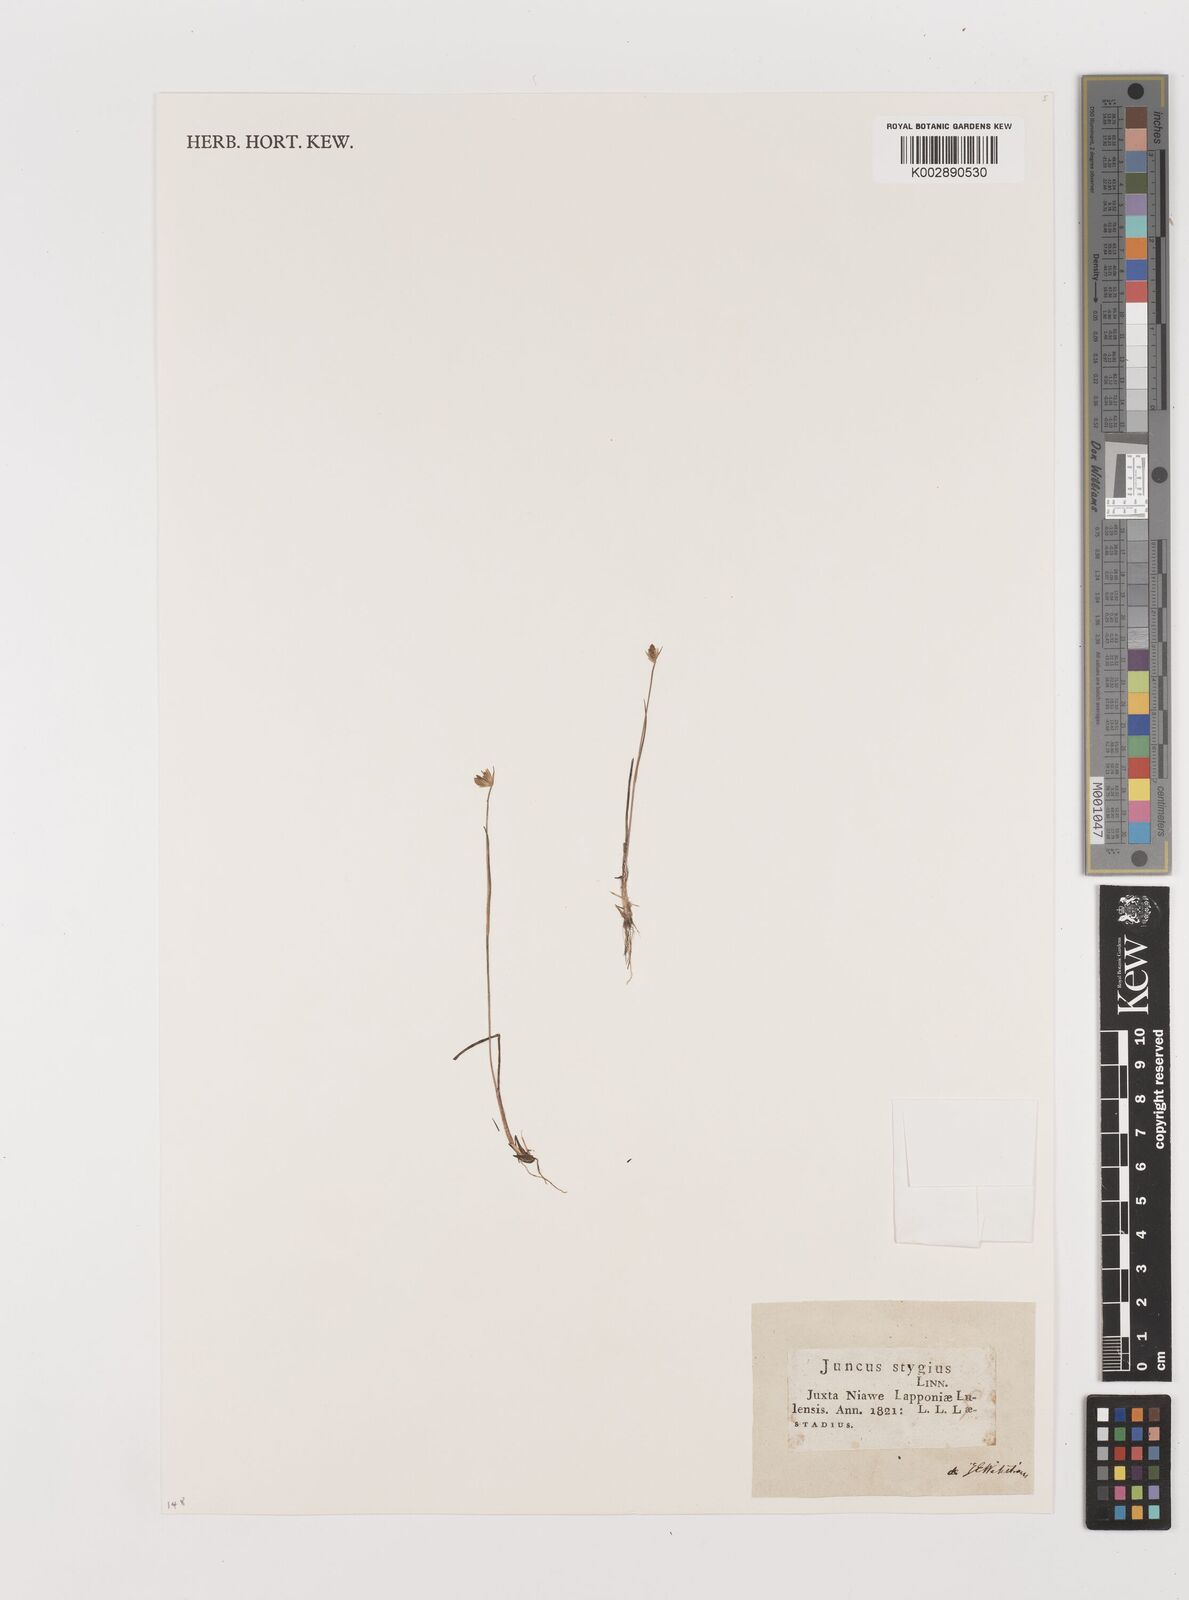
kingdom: Plantae
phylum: Tracheophyta
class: Liliopsida
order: Poales
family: Juncaceae
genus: Juncus
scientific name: Juncus stygius
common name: Bog rush
